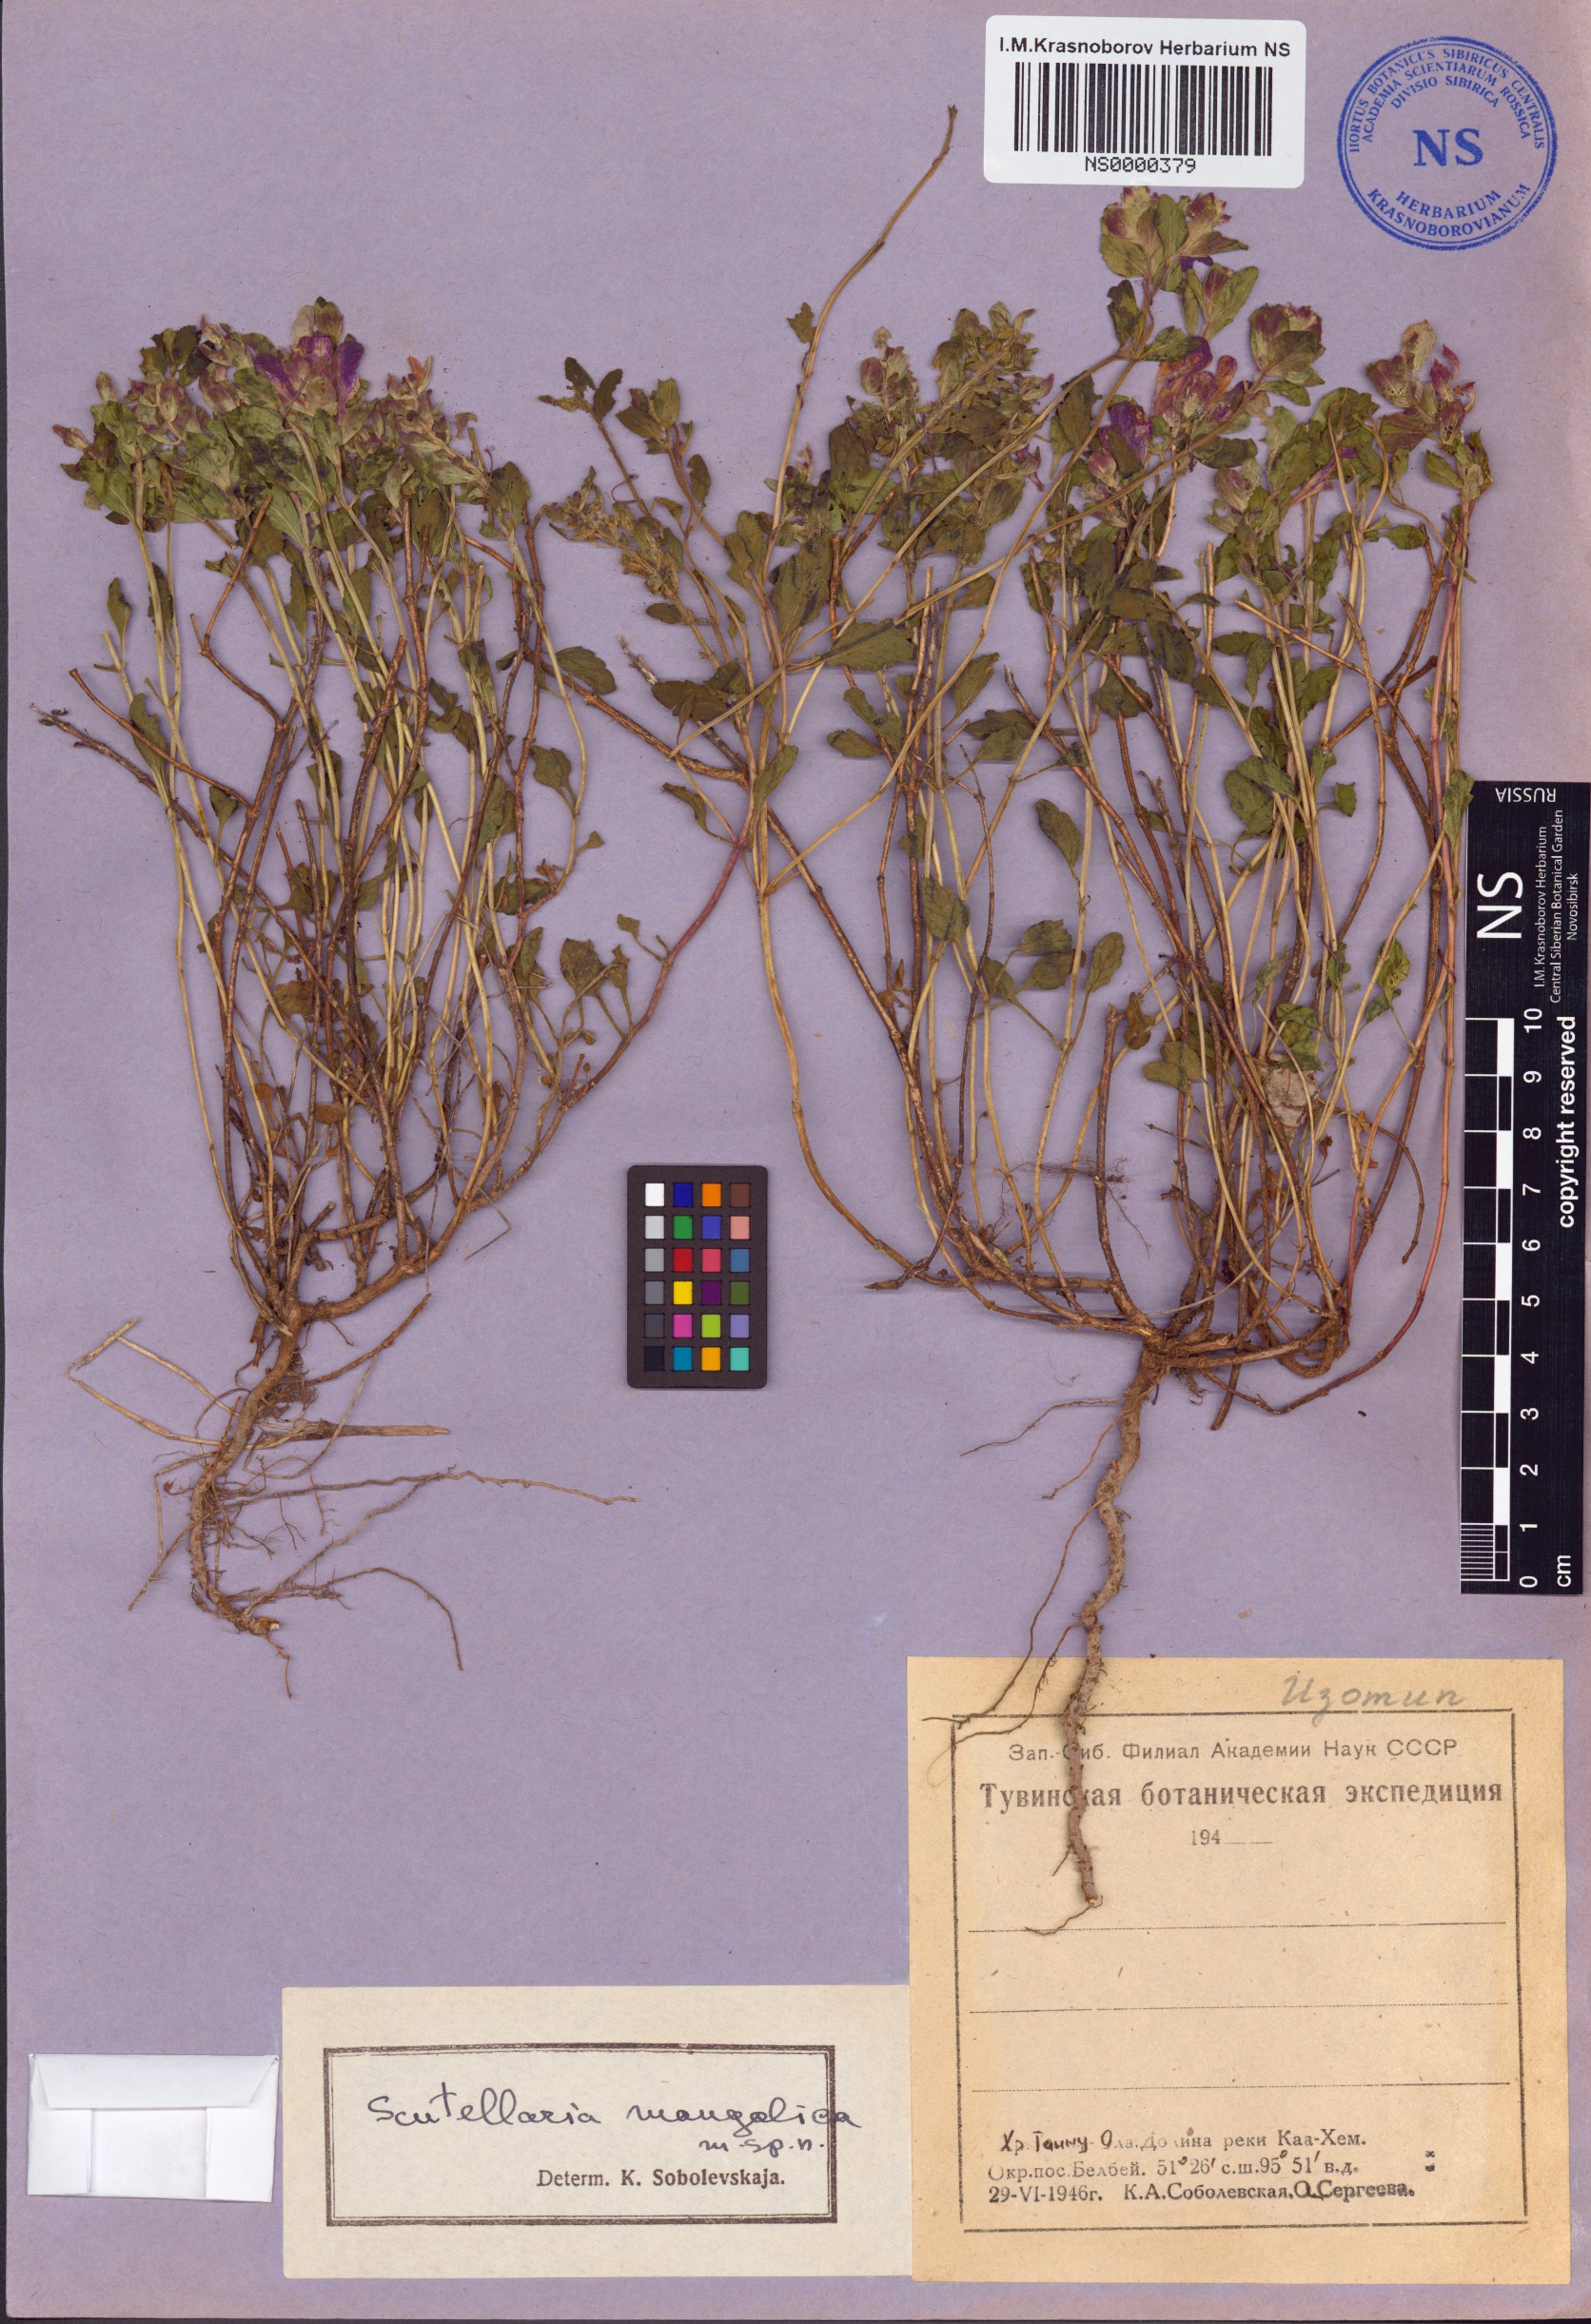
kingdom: Plantae
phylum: Tracheophyta
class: Magnoliopsida
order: Lamiales
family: Lamiaceae
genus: Scutellaria
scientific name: Scutellaria mongolica
